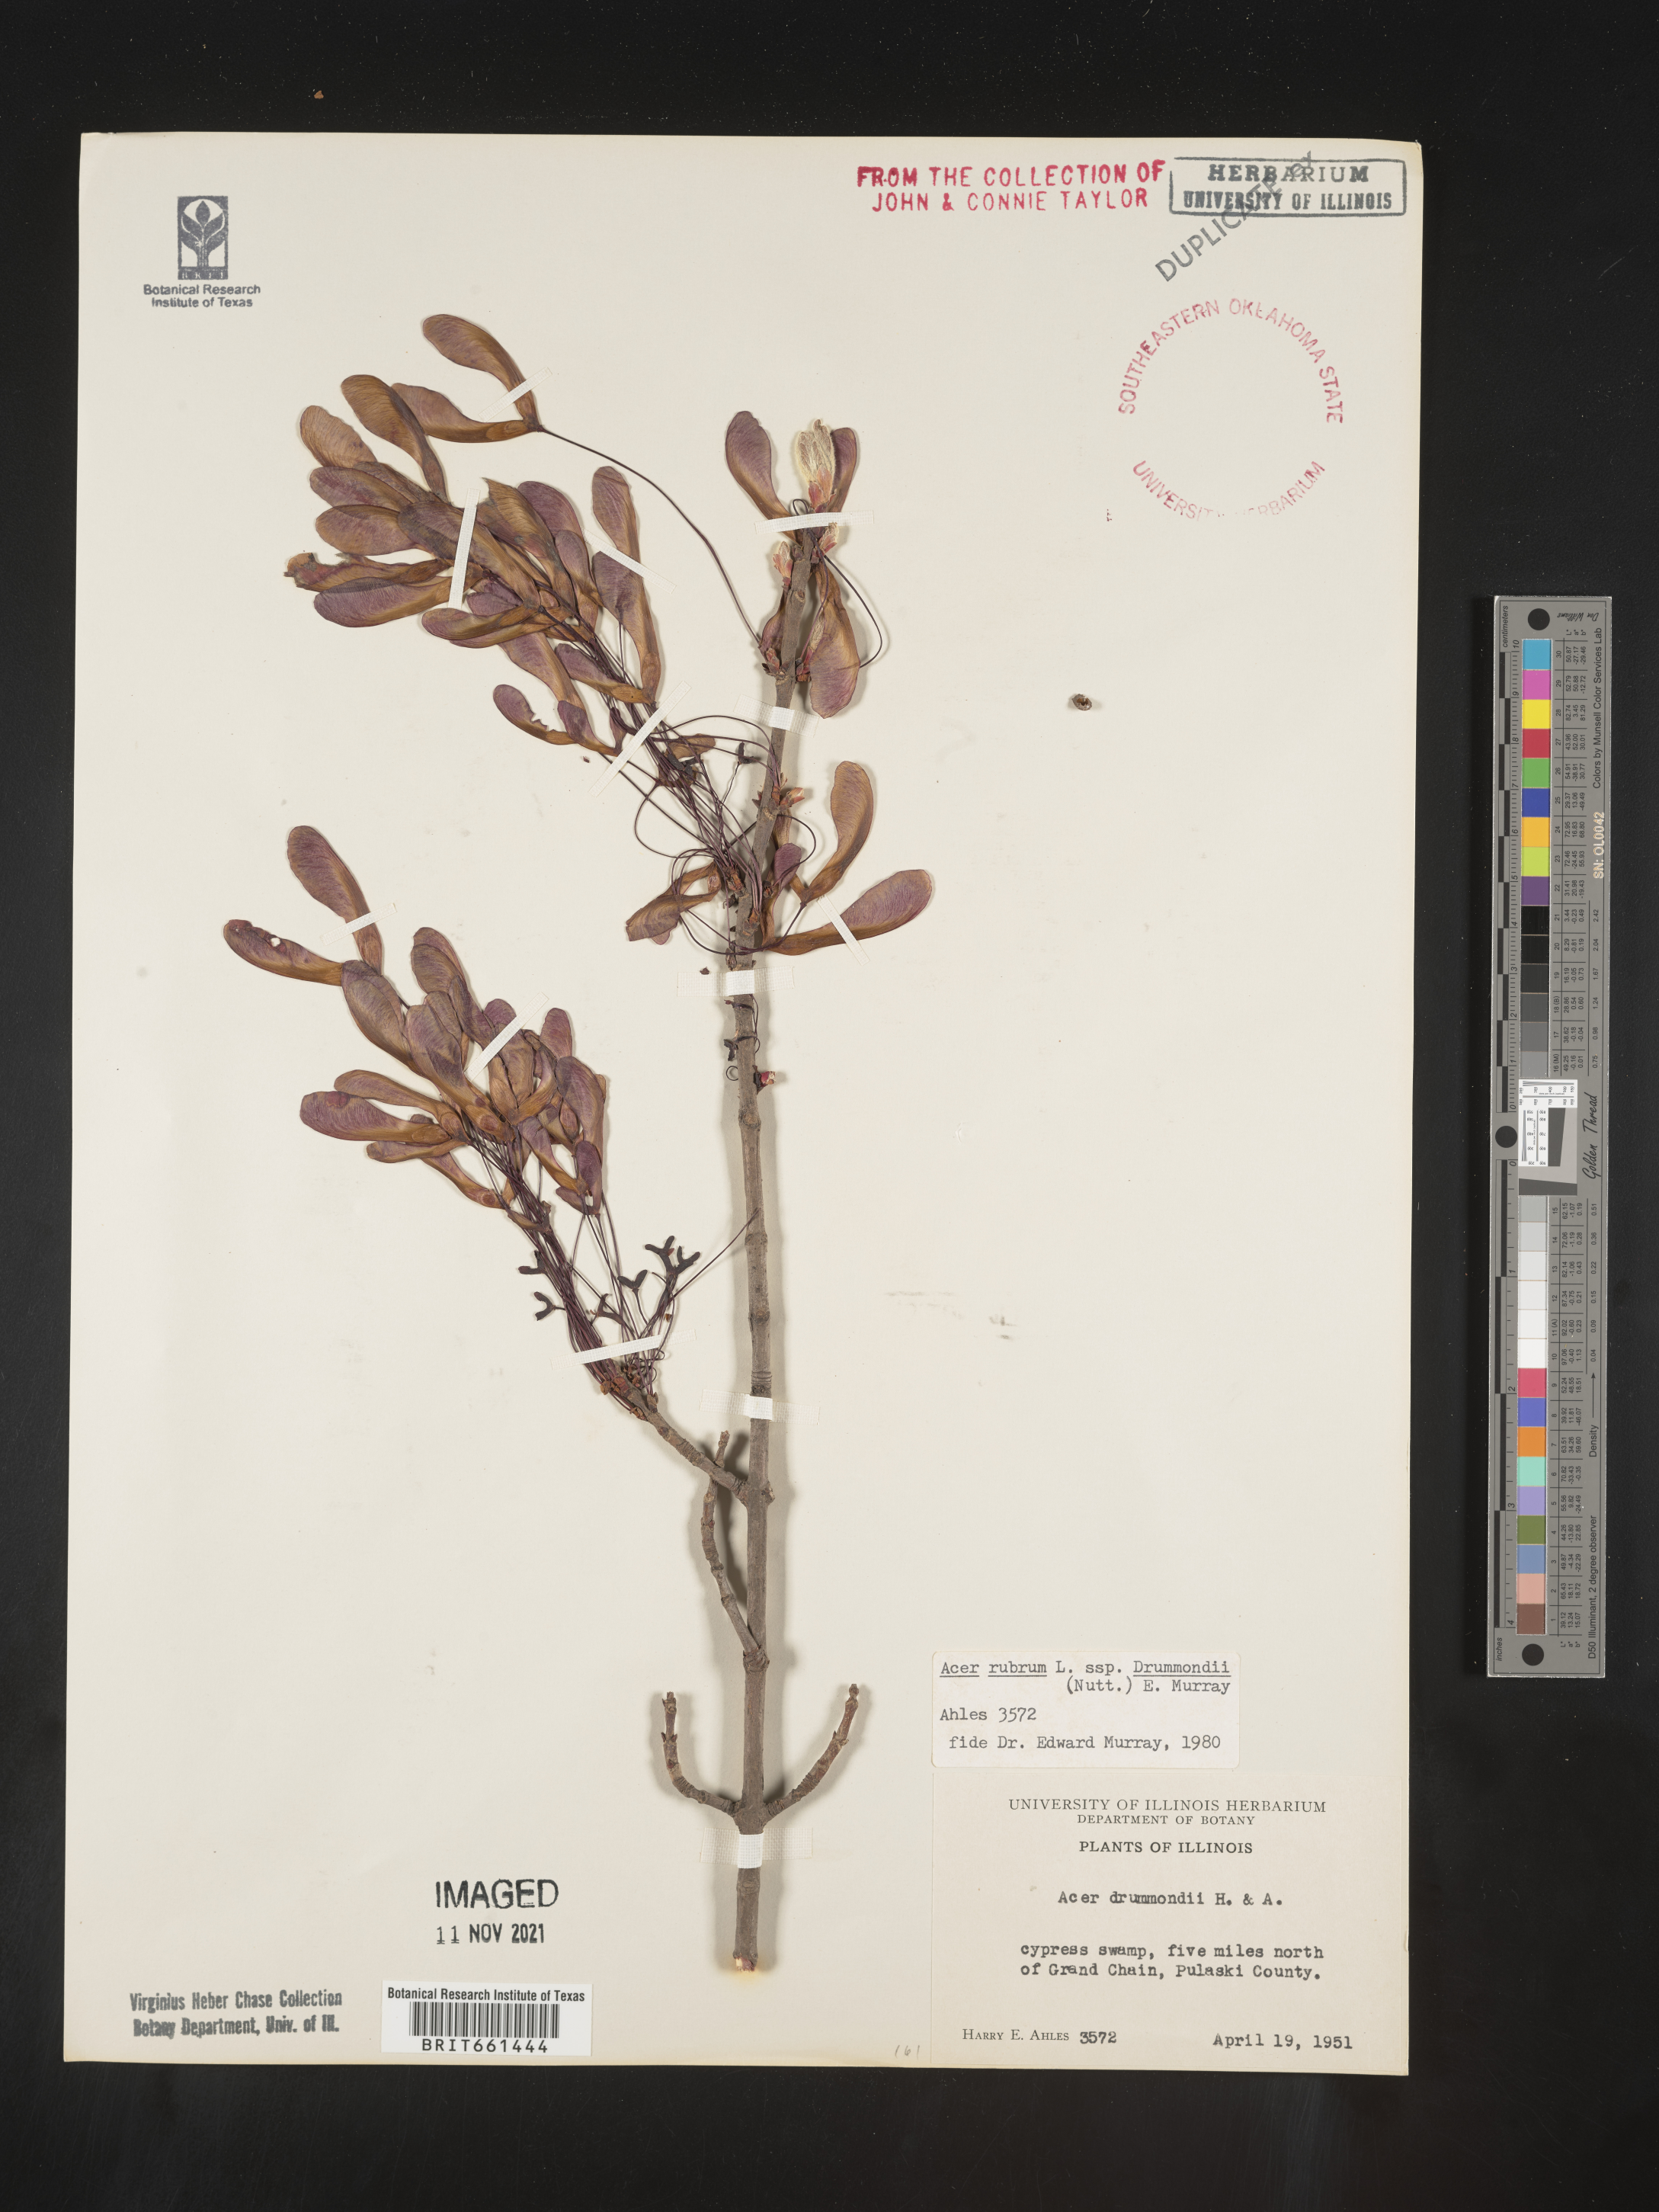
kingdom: Plantae
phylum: Tracheophyta
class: Magnoliopsida
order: Sapindales
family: Sapindaceae
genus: Acer
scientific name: Acer rubrum
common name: Red maple
